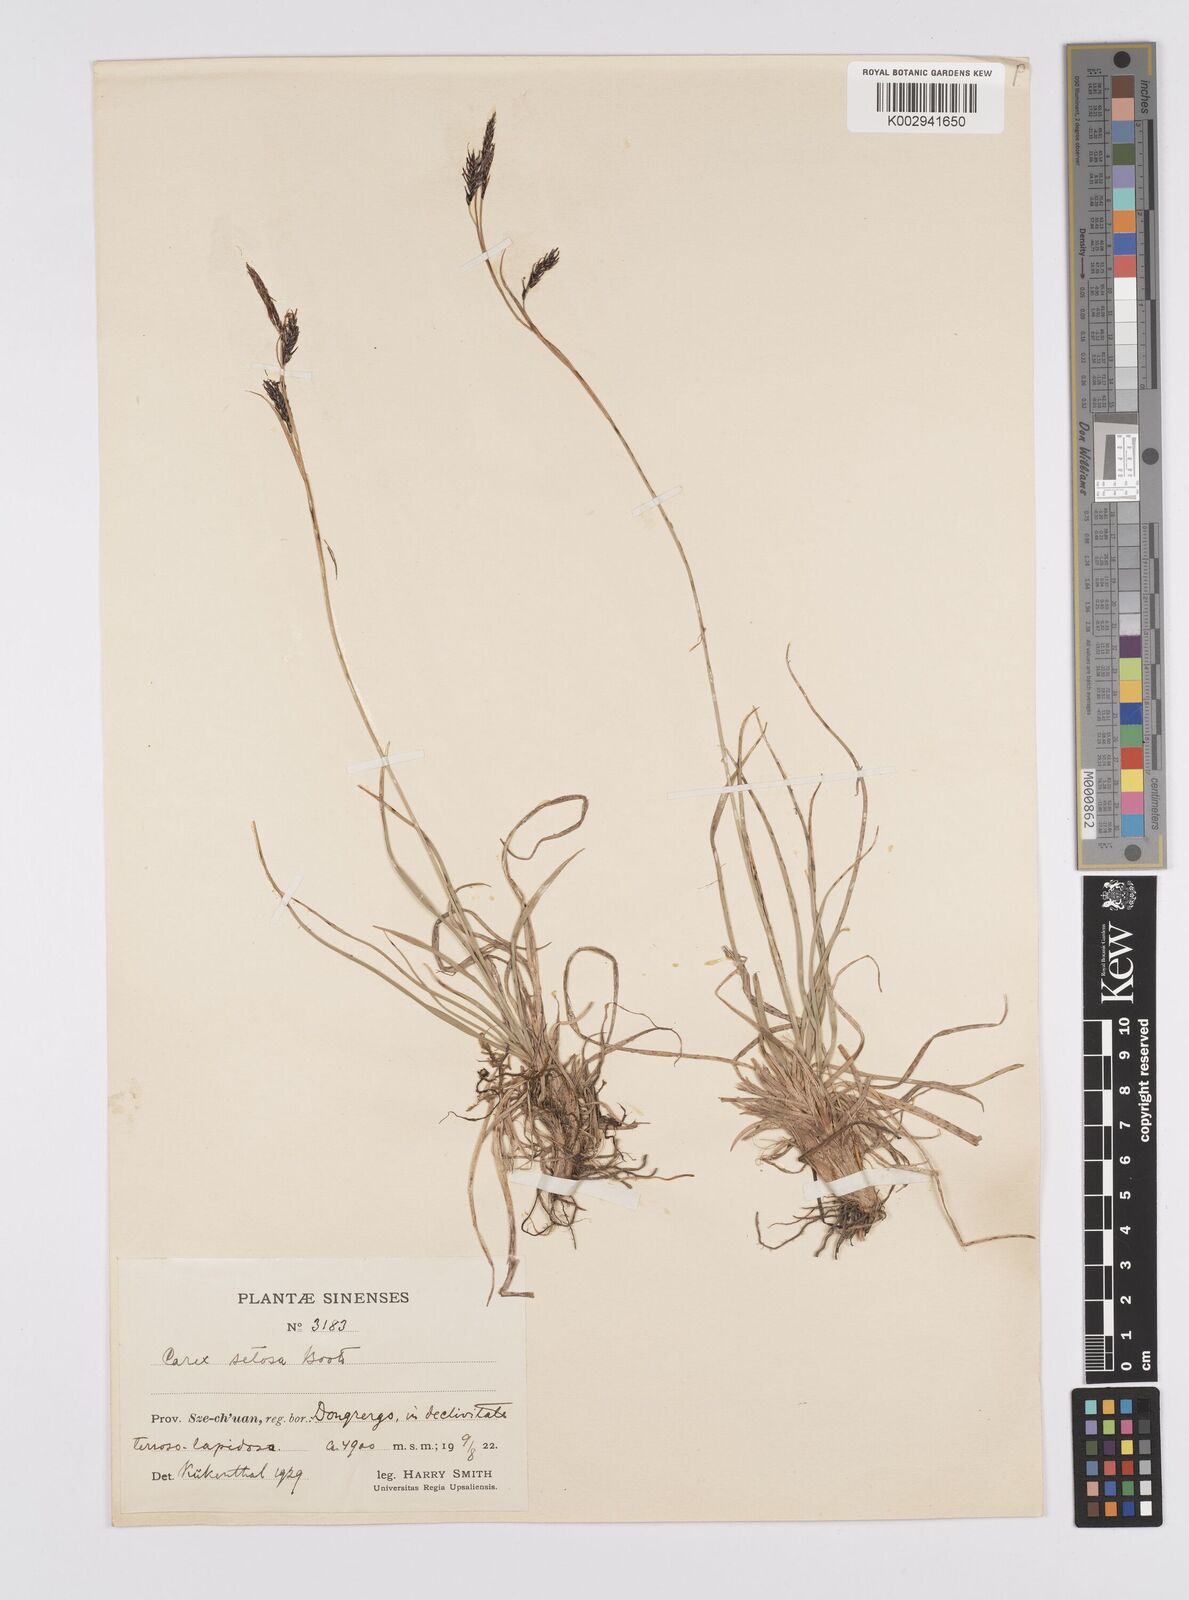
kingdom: Plantae
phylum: Tracheophyta
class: Liliopsida
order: Poales
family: Cyperaceae
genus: Carex
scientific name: Carex setosa
